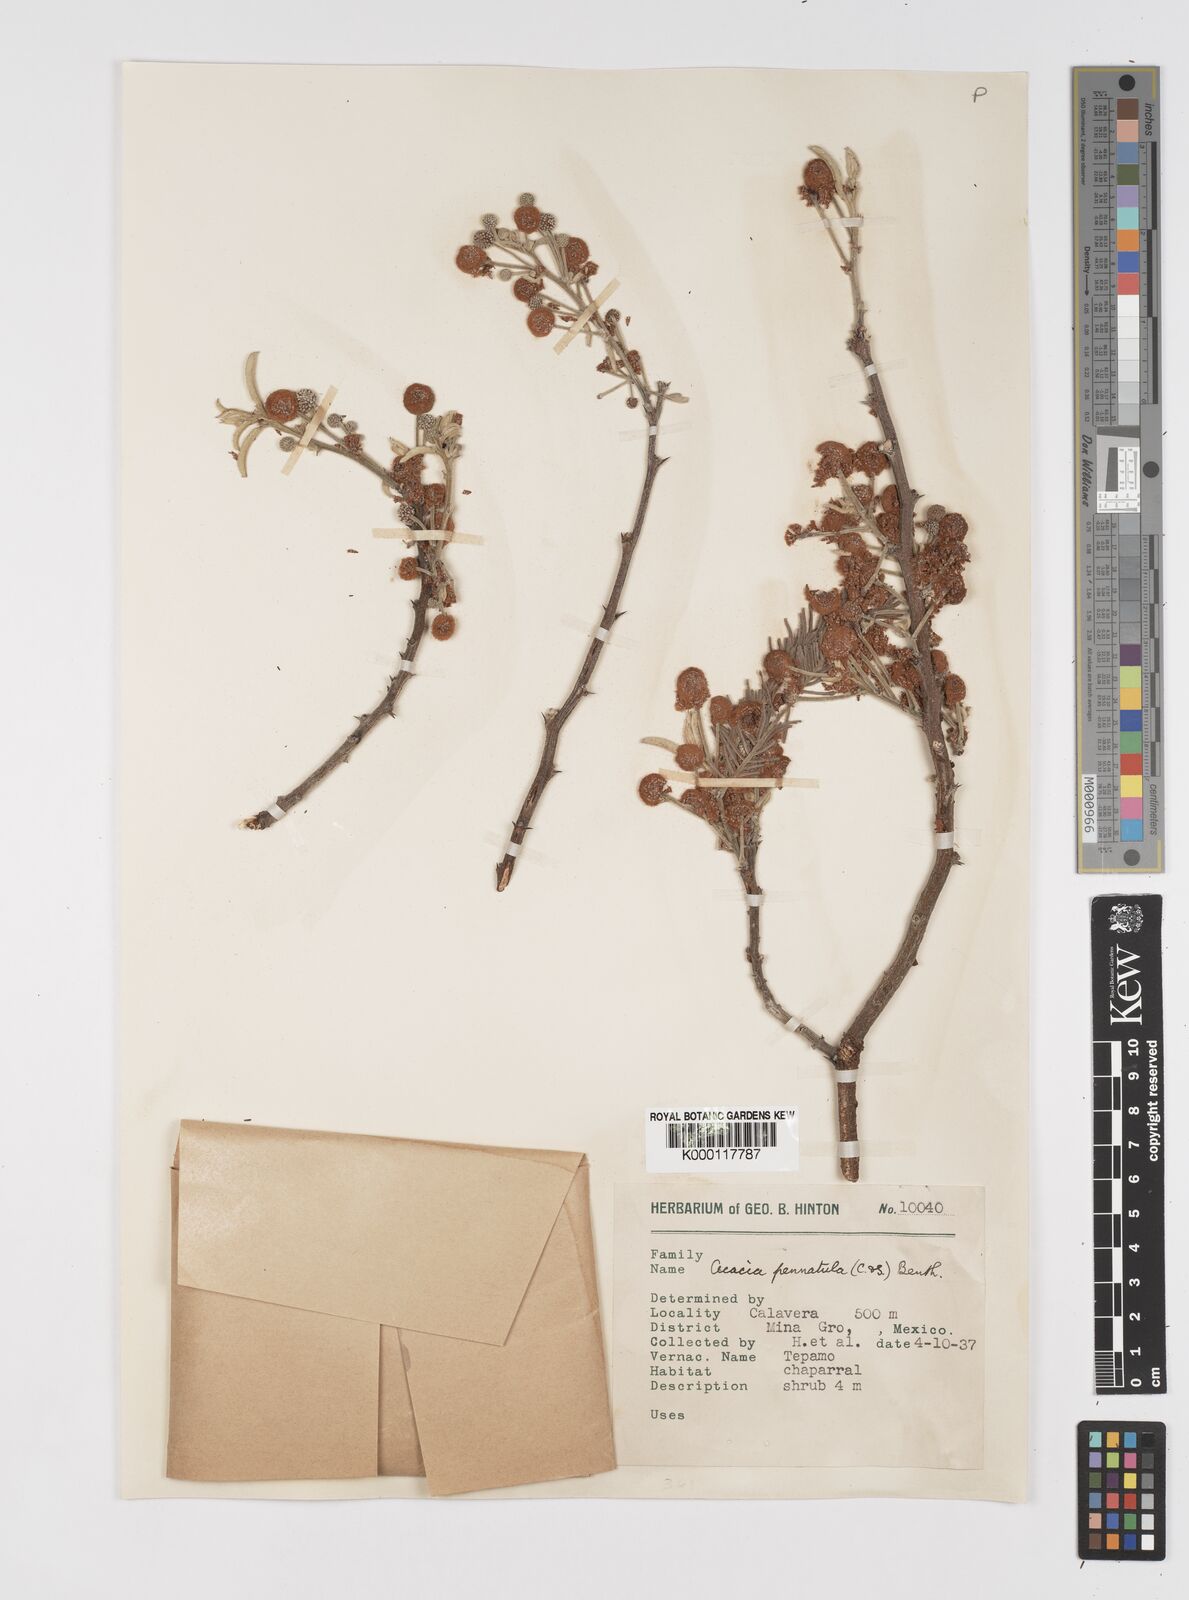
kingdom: Plantae
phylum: Tracheophyta
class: Magnoliopsida
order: Fabales
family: Fabaceae
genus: Vachellia
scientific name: Vachellia pennatula
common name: Fern-leaf acacia
